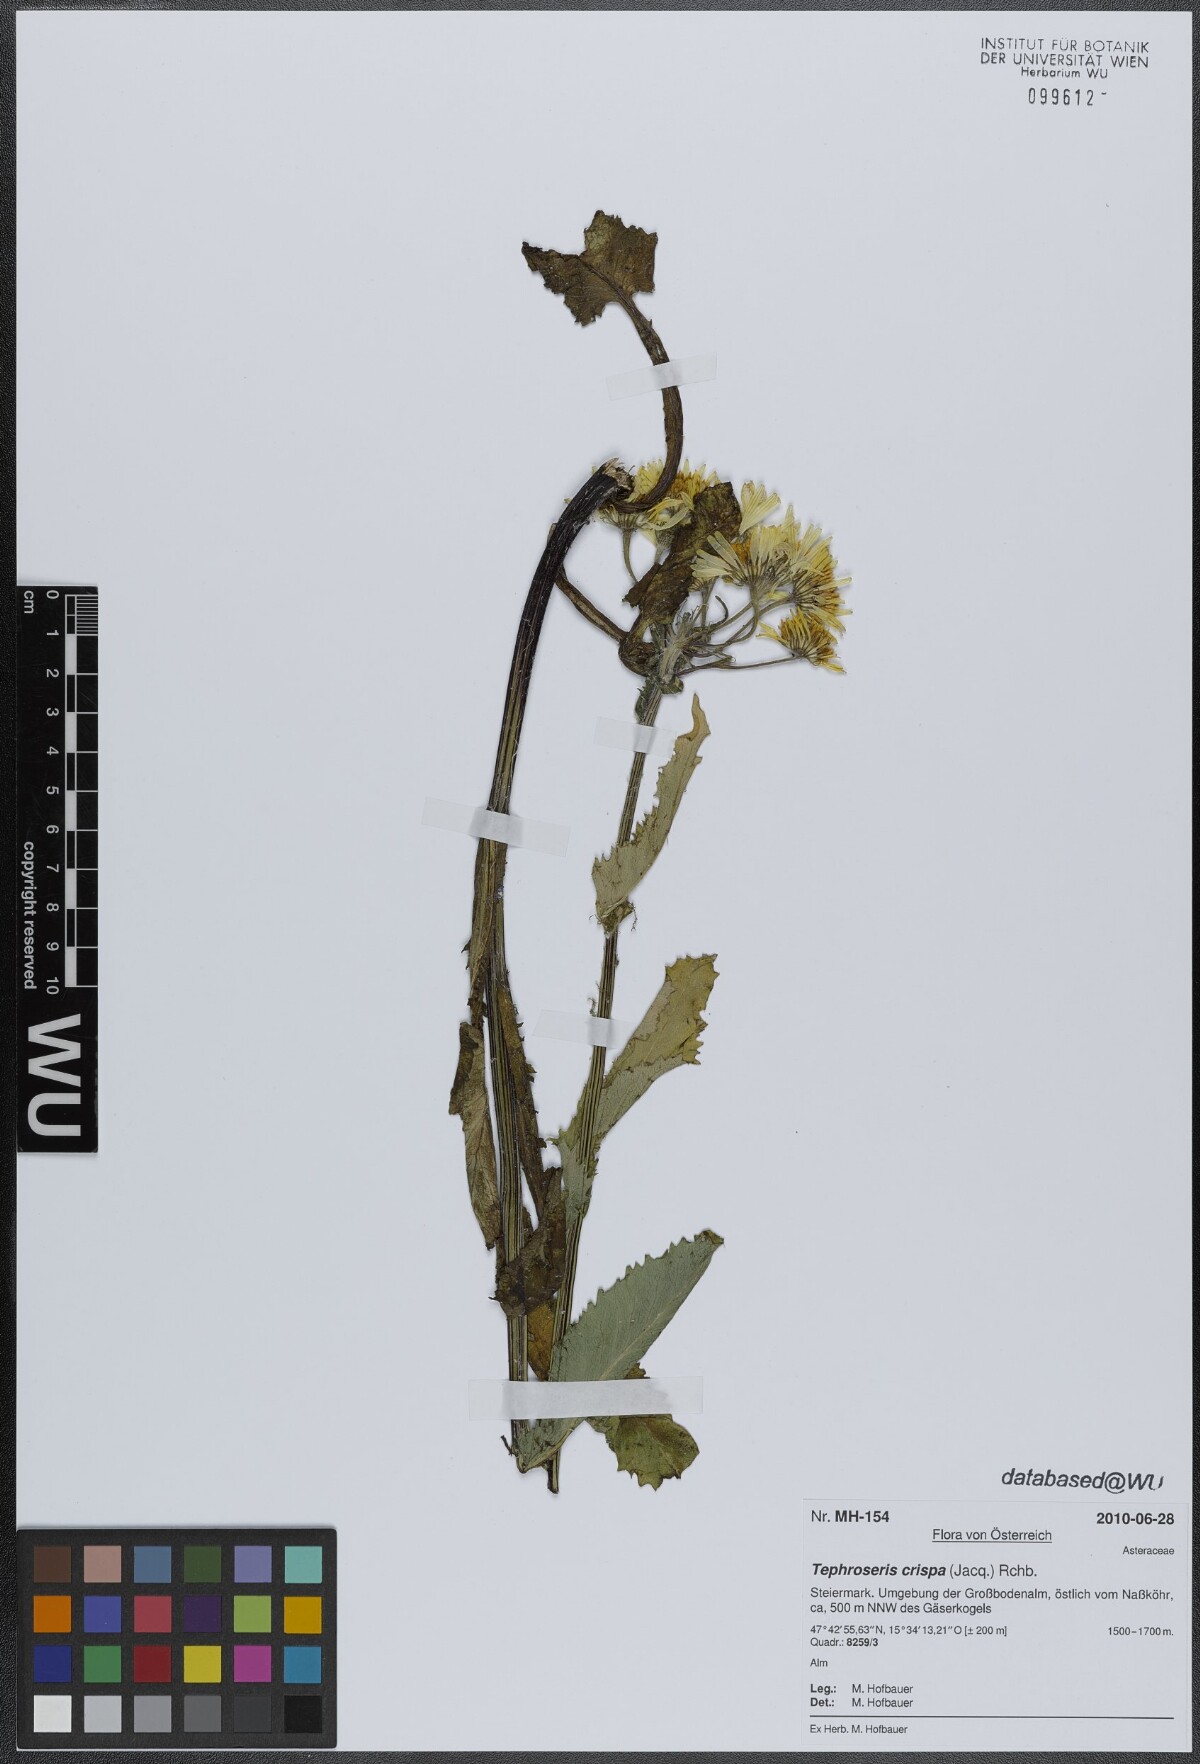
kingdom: Plantae
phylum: Tracheophyta
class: Magnoliopsida
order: Asterales
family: Asteraceae
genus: Tephroseris
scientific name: Tephroseris crispa
